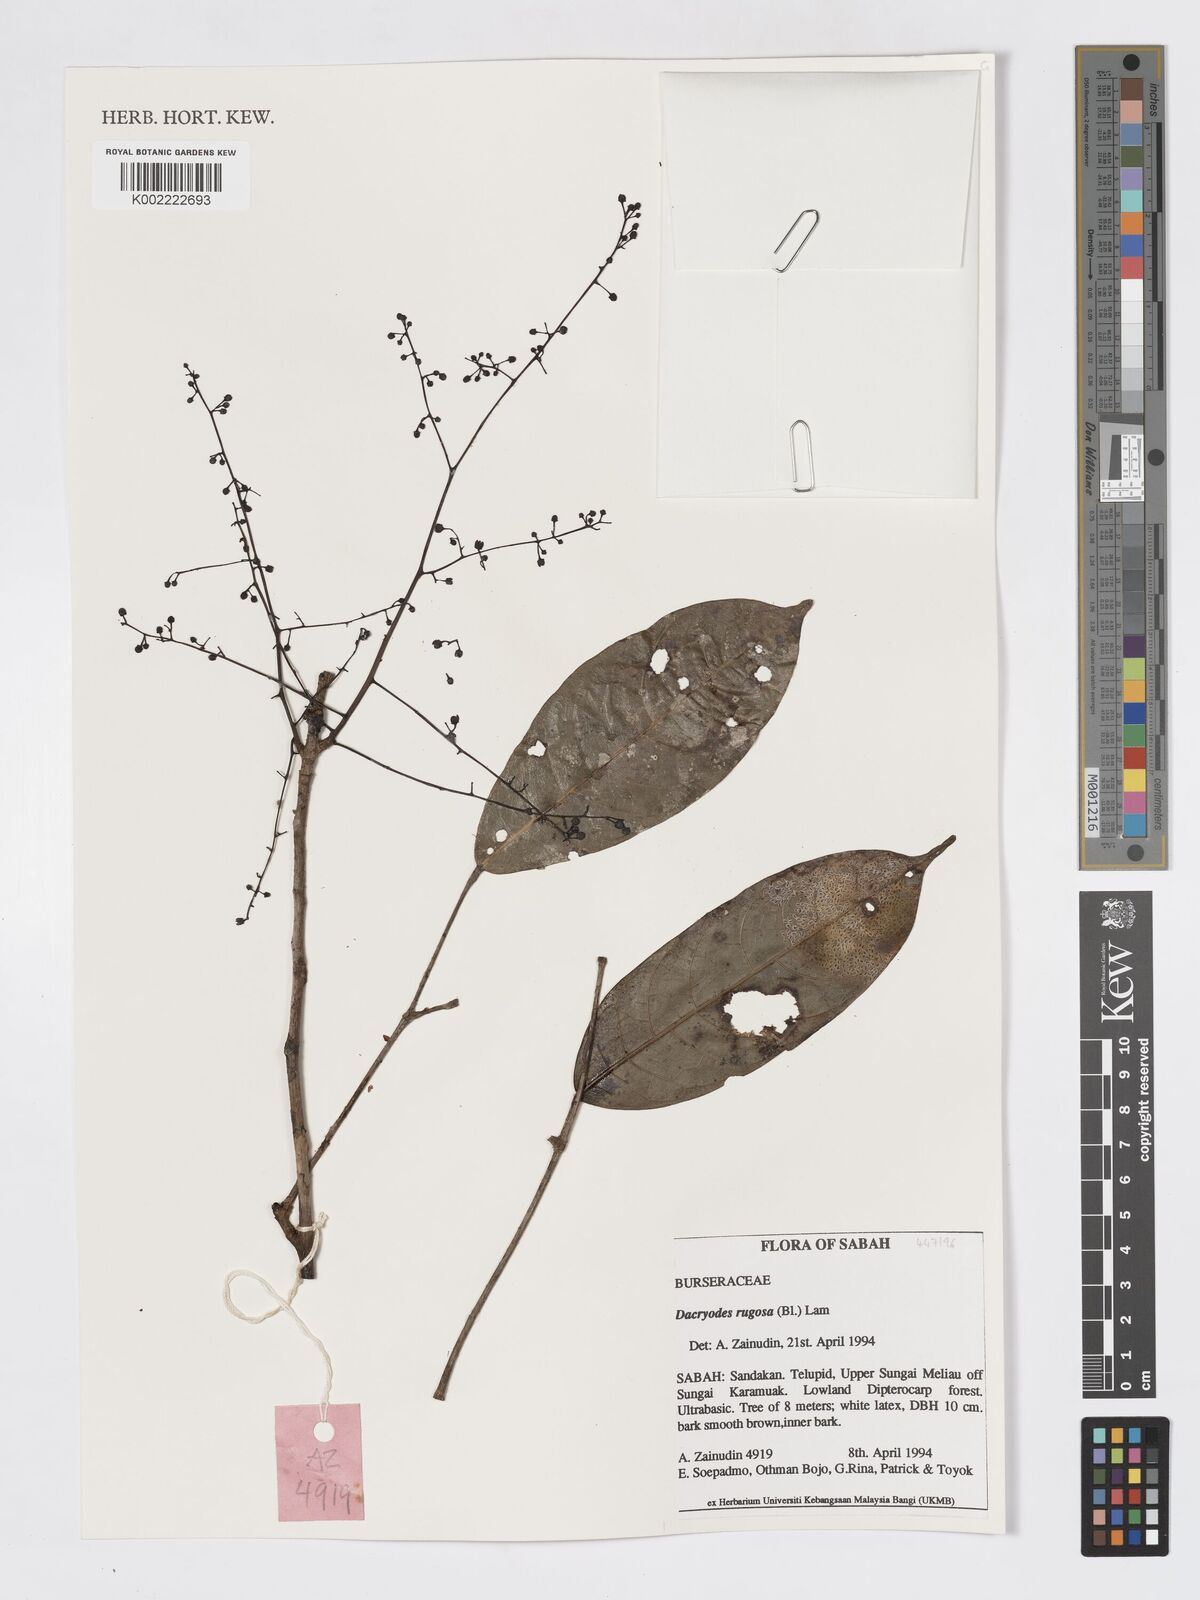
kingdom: Plantae
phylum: Tracheophyta
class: Magnoliopsida
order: Sapindales
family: Burseraceae
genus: Dacryodes
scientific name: Dacryodes rugosa
